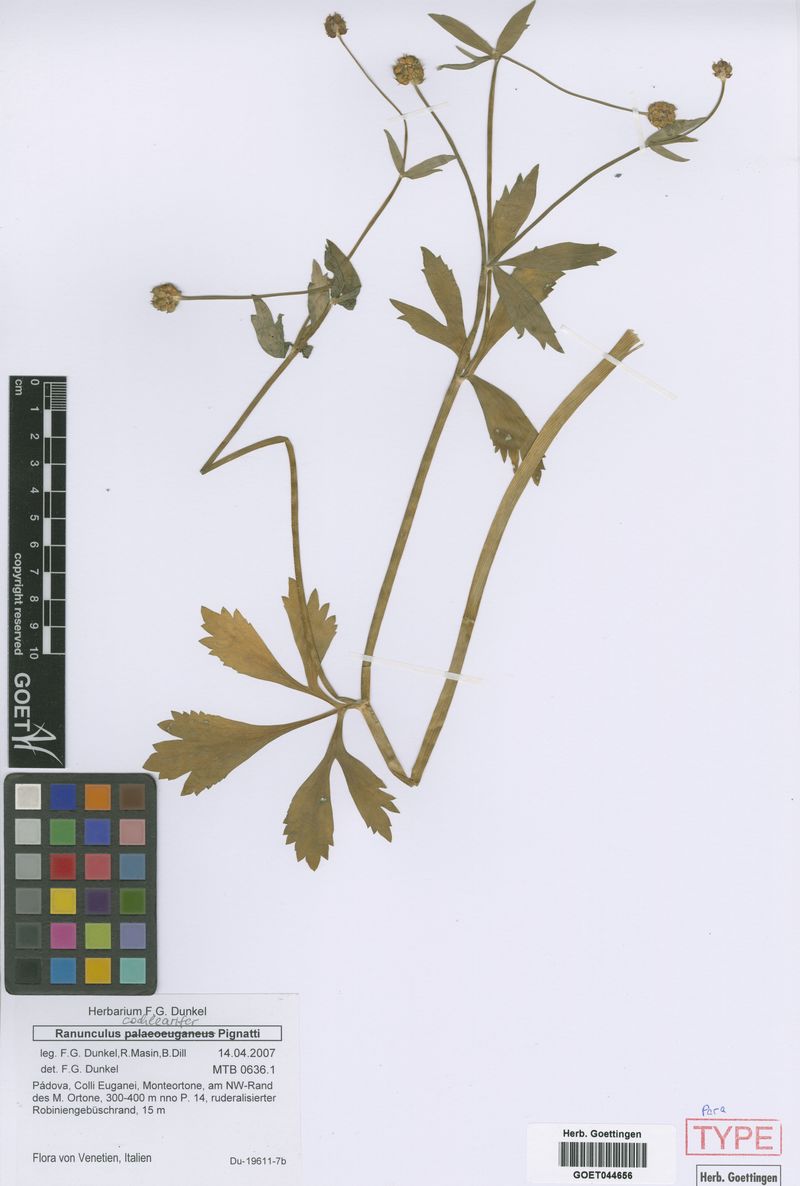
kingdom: Plantae
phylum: Tracheophyta
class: Magnoliopsida
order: Ranunculales
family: Ranunculaceae
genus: Ranunculus
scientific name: Ranunculus cochlearifer
